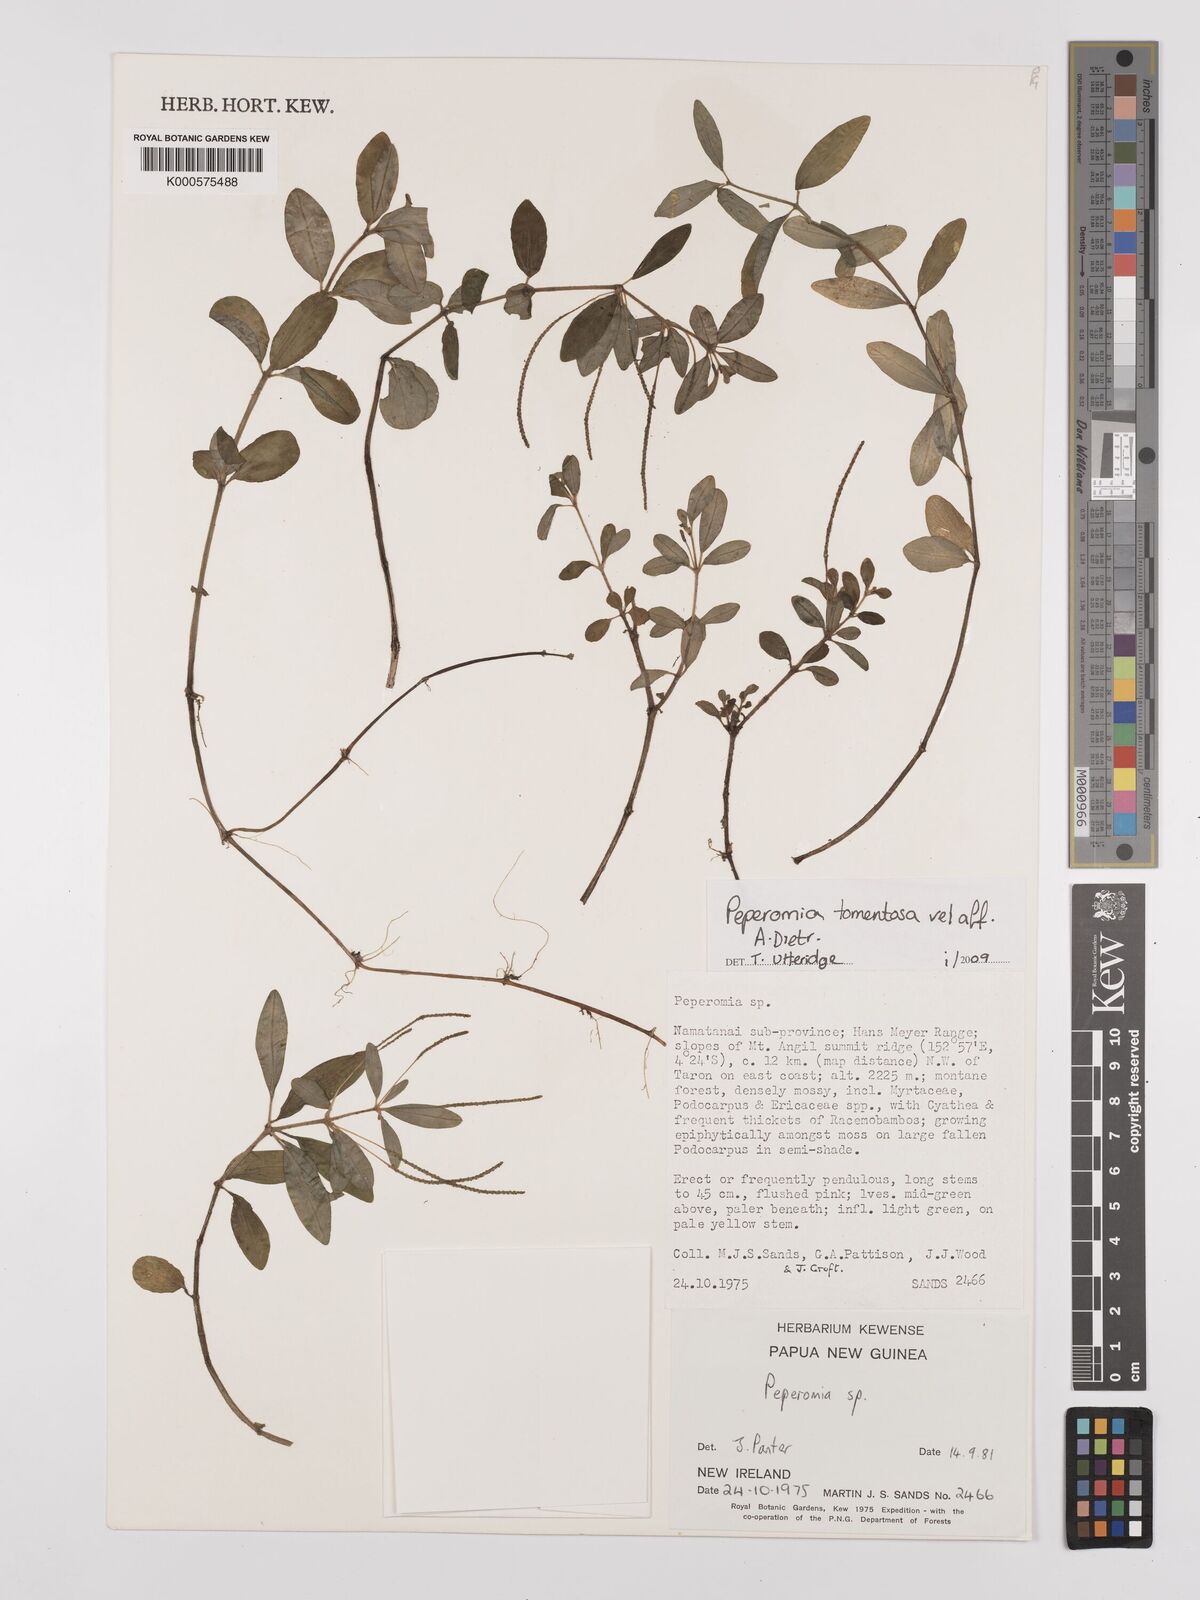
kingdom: Plantae
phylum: Tracheophyta
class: Magnoliopsida
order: Piperales
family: Piperaceae
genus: Peperomia
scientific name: Peperomia
